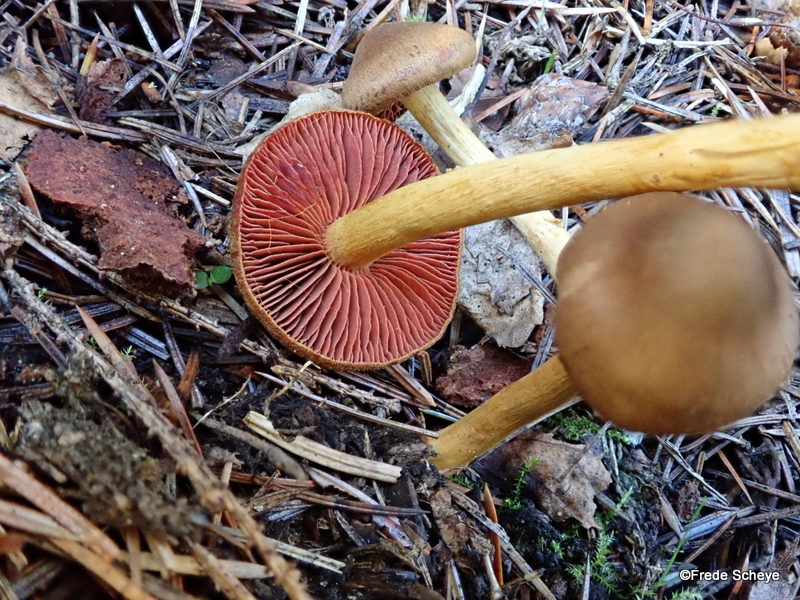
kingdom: Fungi
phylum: Basidiomycota
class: Agaricomycetes
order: Agaricales
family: Cortinariaceae
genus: Cortinarius
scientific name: Cortinarius
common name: cinnoberbladet slørhat
